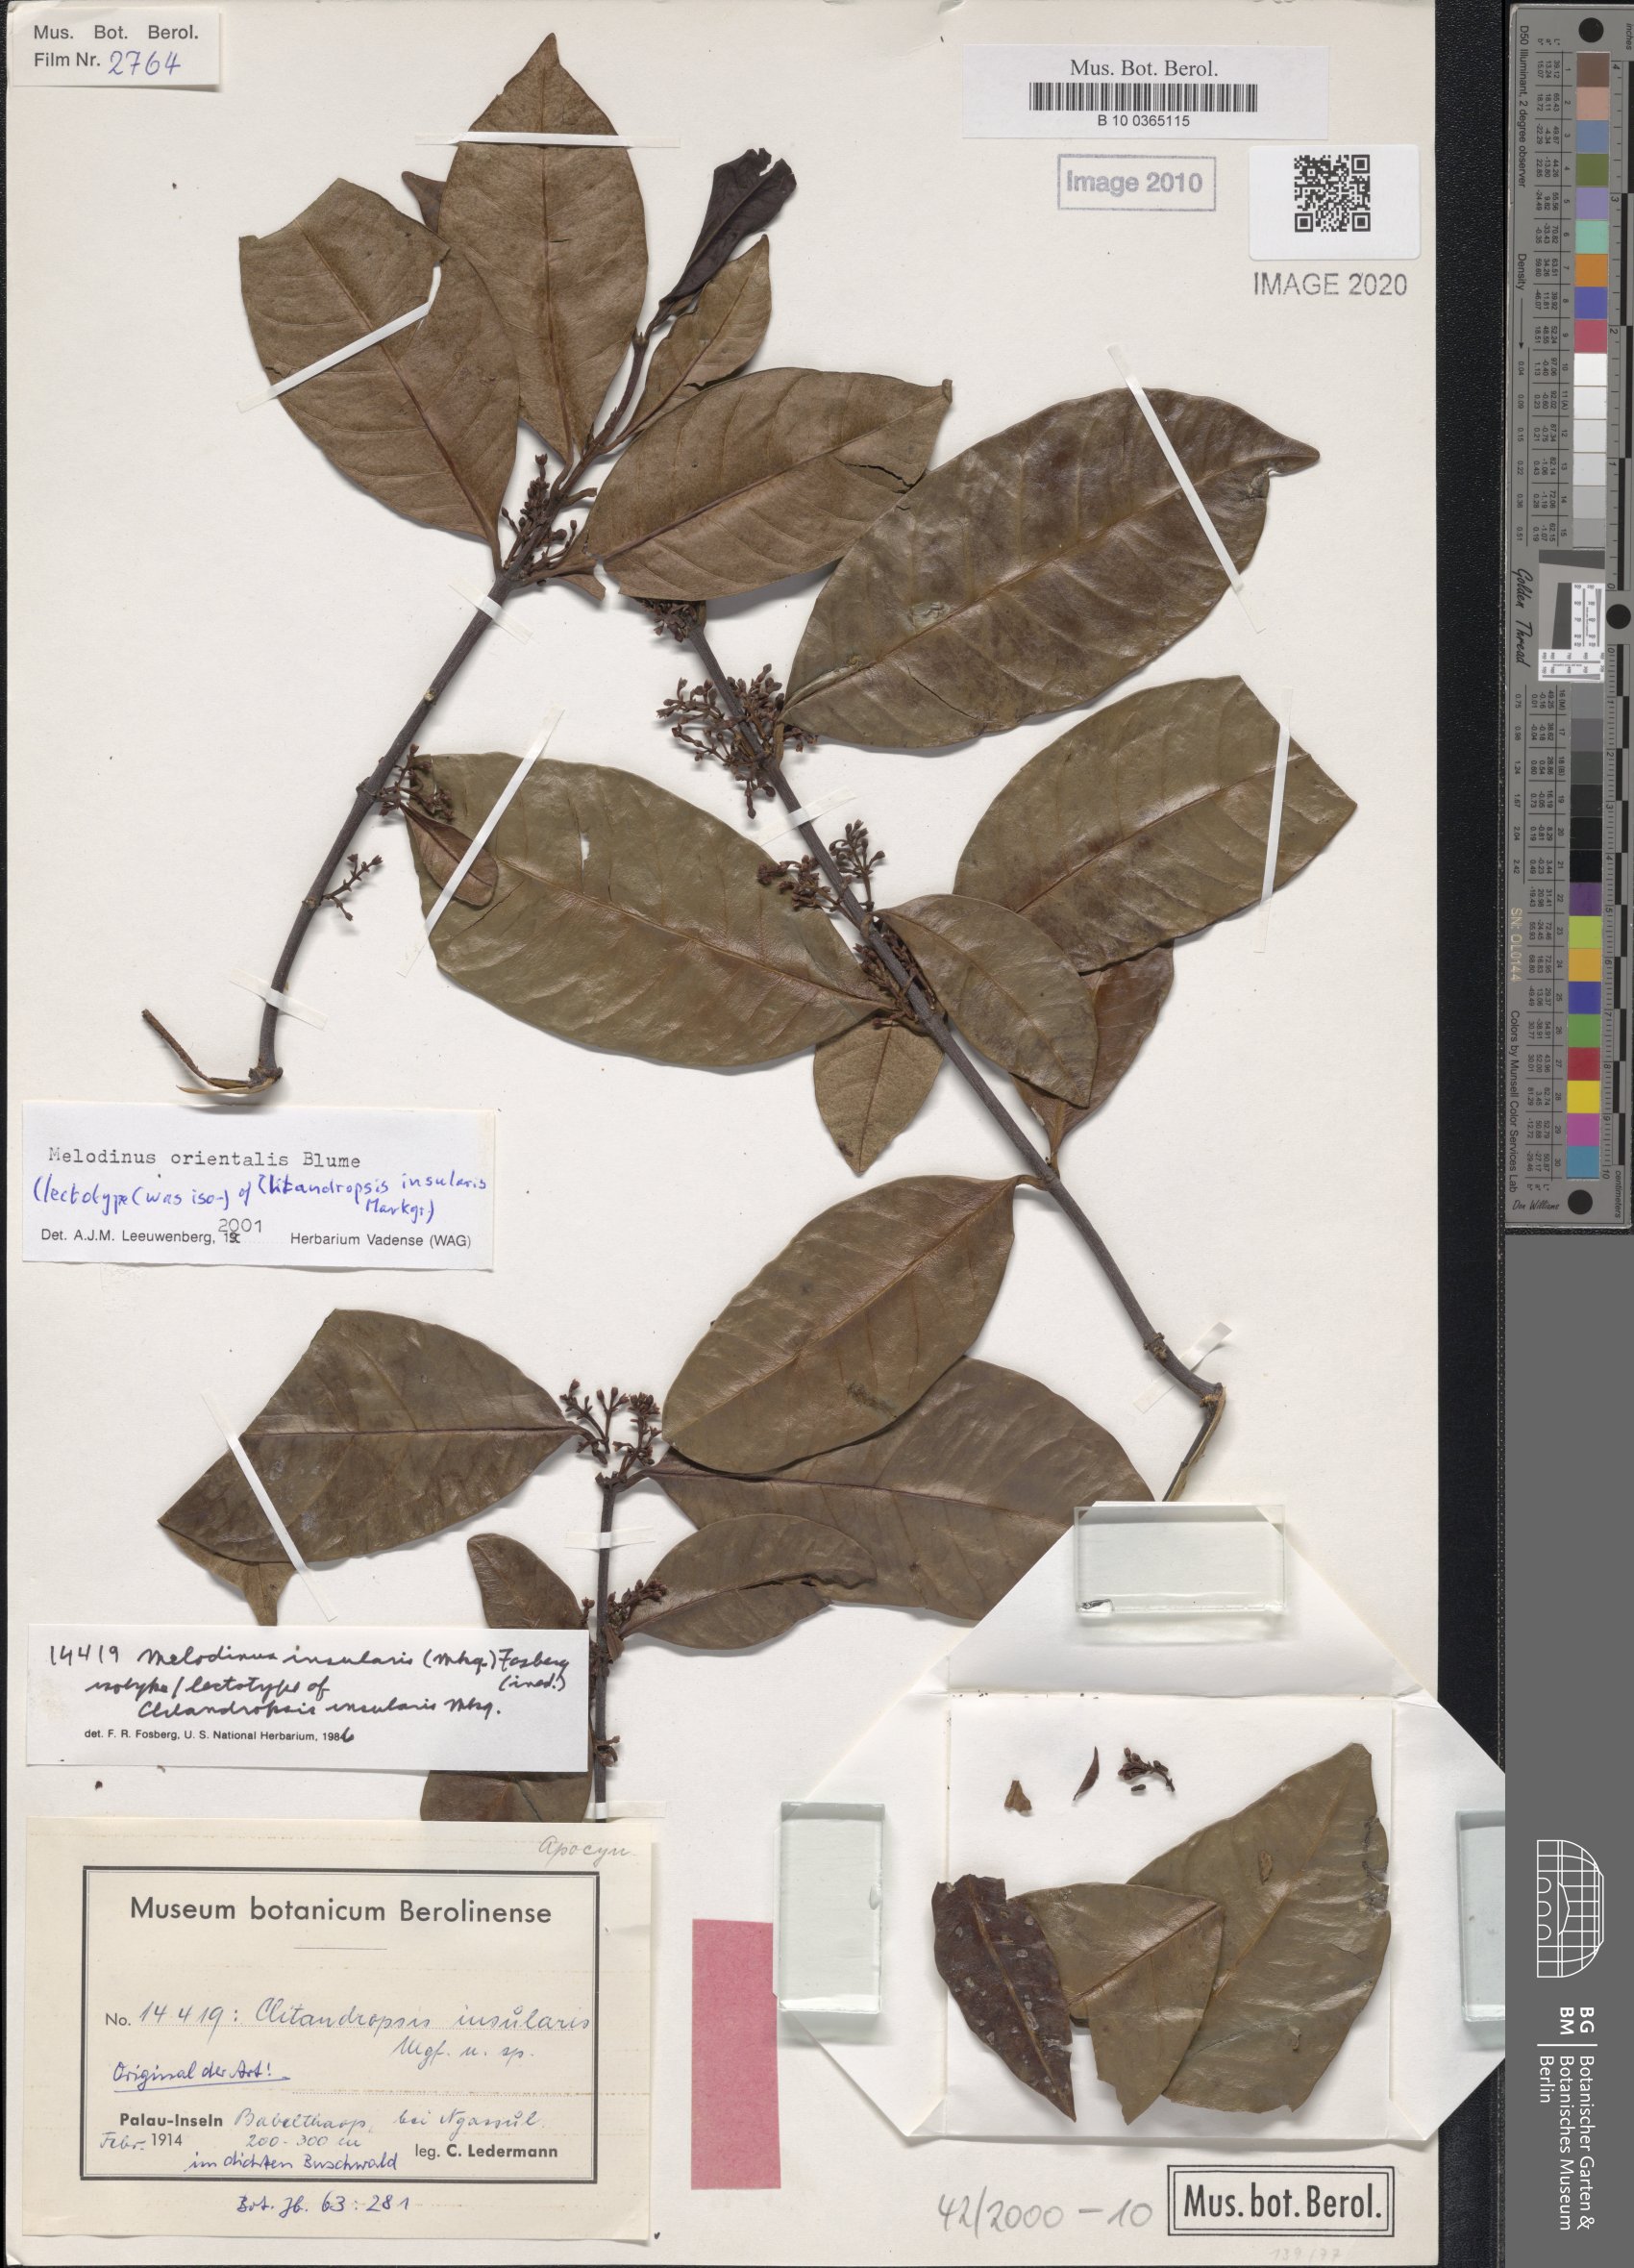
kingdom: Plantae
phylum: Tracheophyta
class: Magnoliopsida
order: Gentianales
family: Apocynaceae
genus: Melodinus
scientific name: Melodinus orientalis
